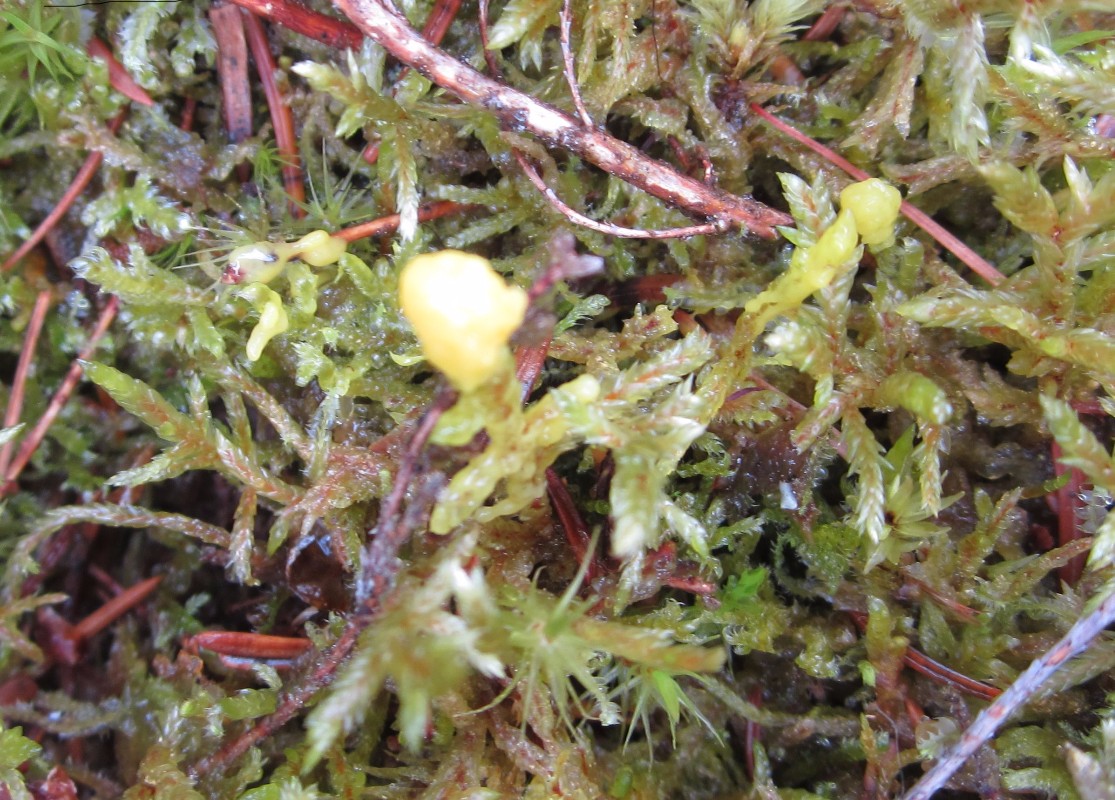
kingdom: Protozoa
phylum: Mycetozoa
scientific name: Mycetozoa
